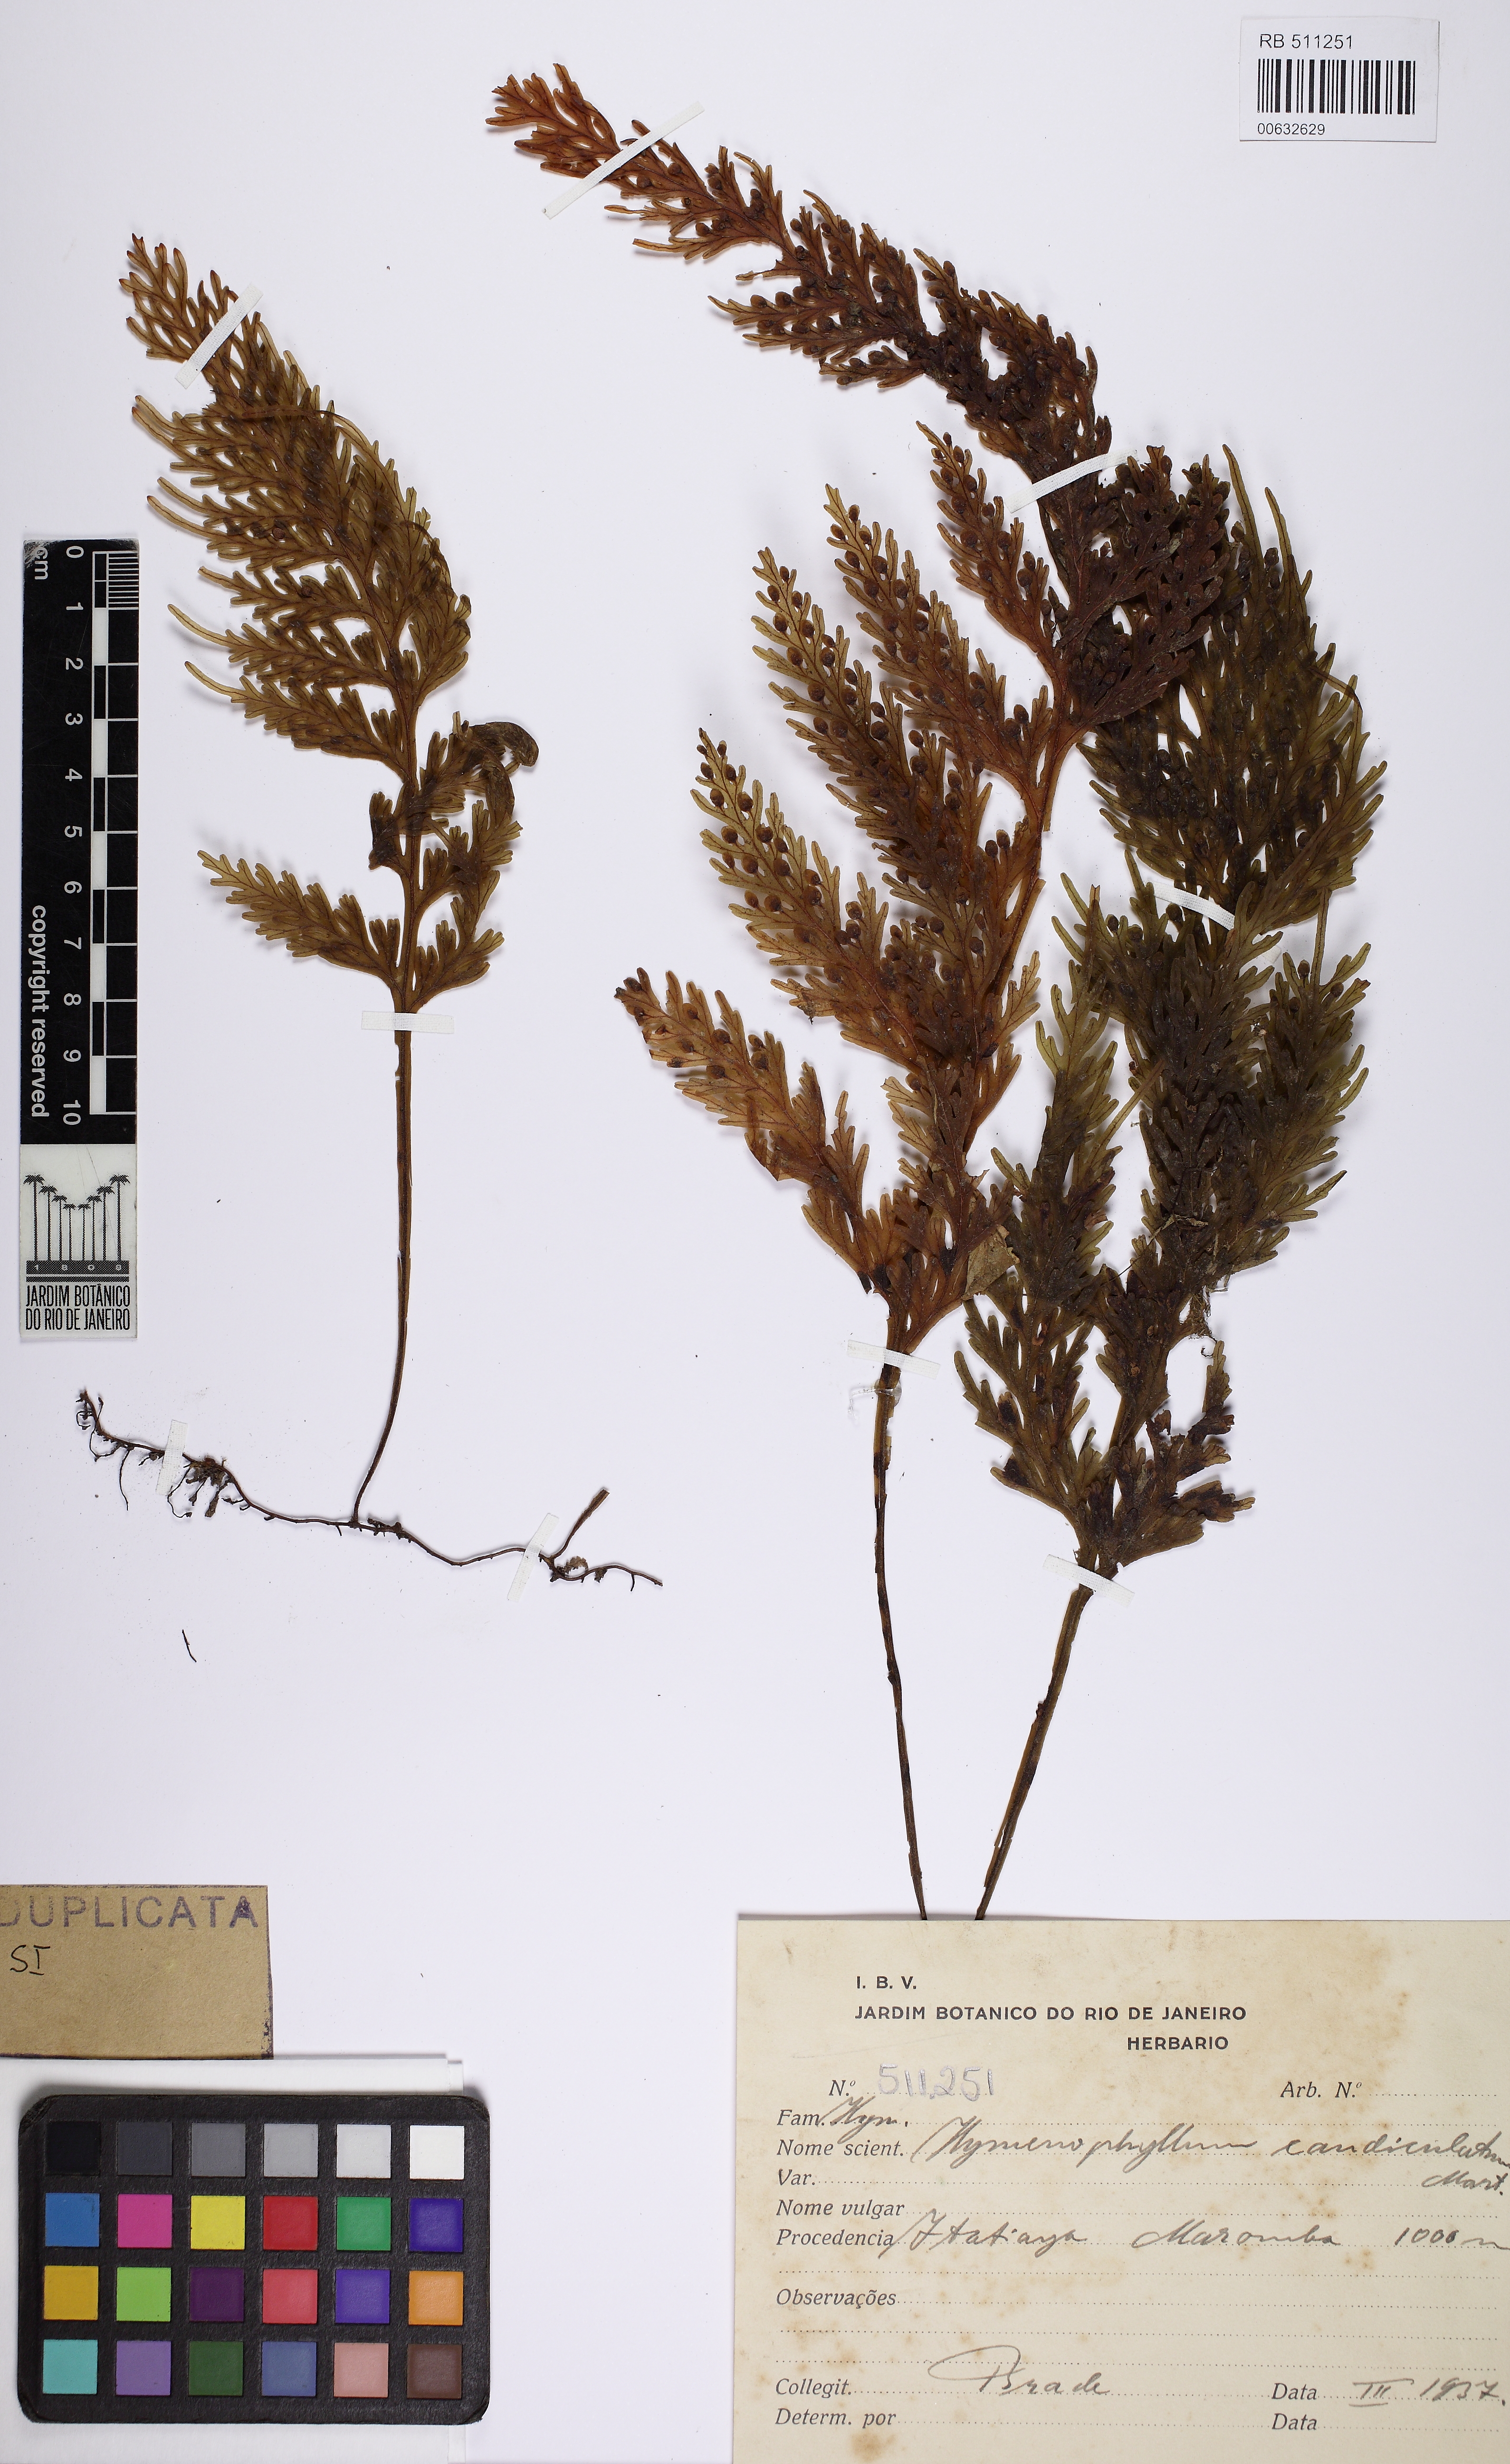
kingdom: Plantae
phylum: Tracheophyta
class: Polypodiopsida
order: Hymenophyllales
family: Hymenophyllaceae
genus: Hymenophyllum
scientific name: Hymenophyllum caudiculatum
